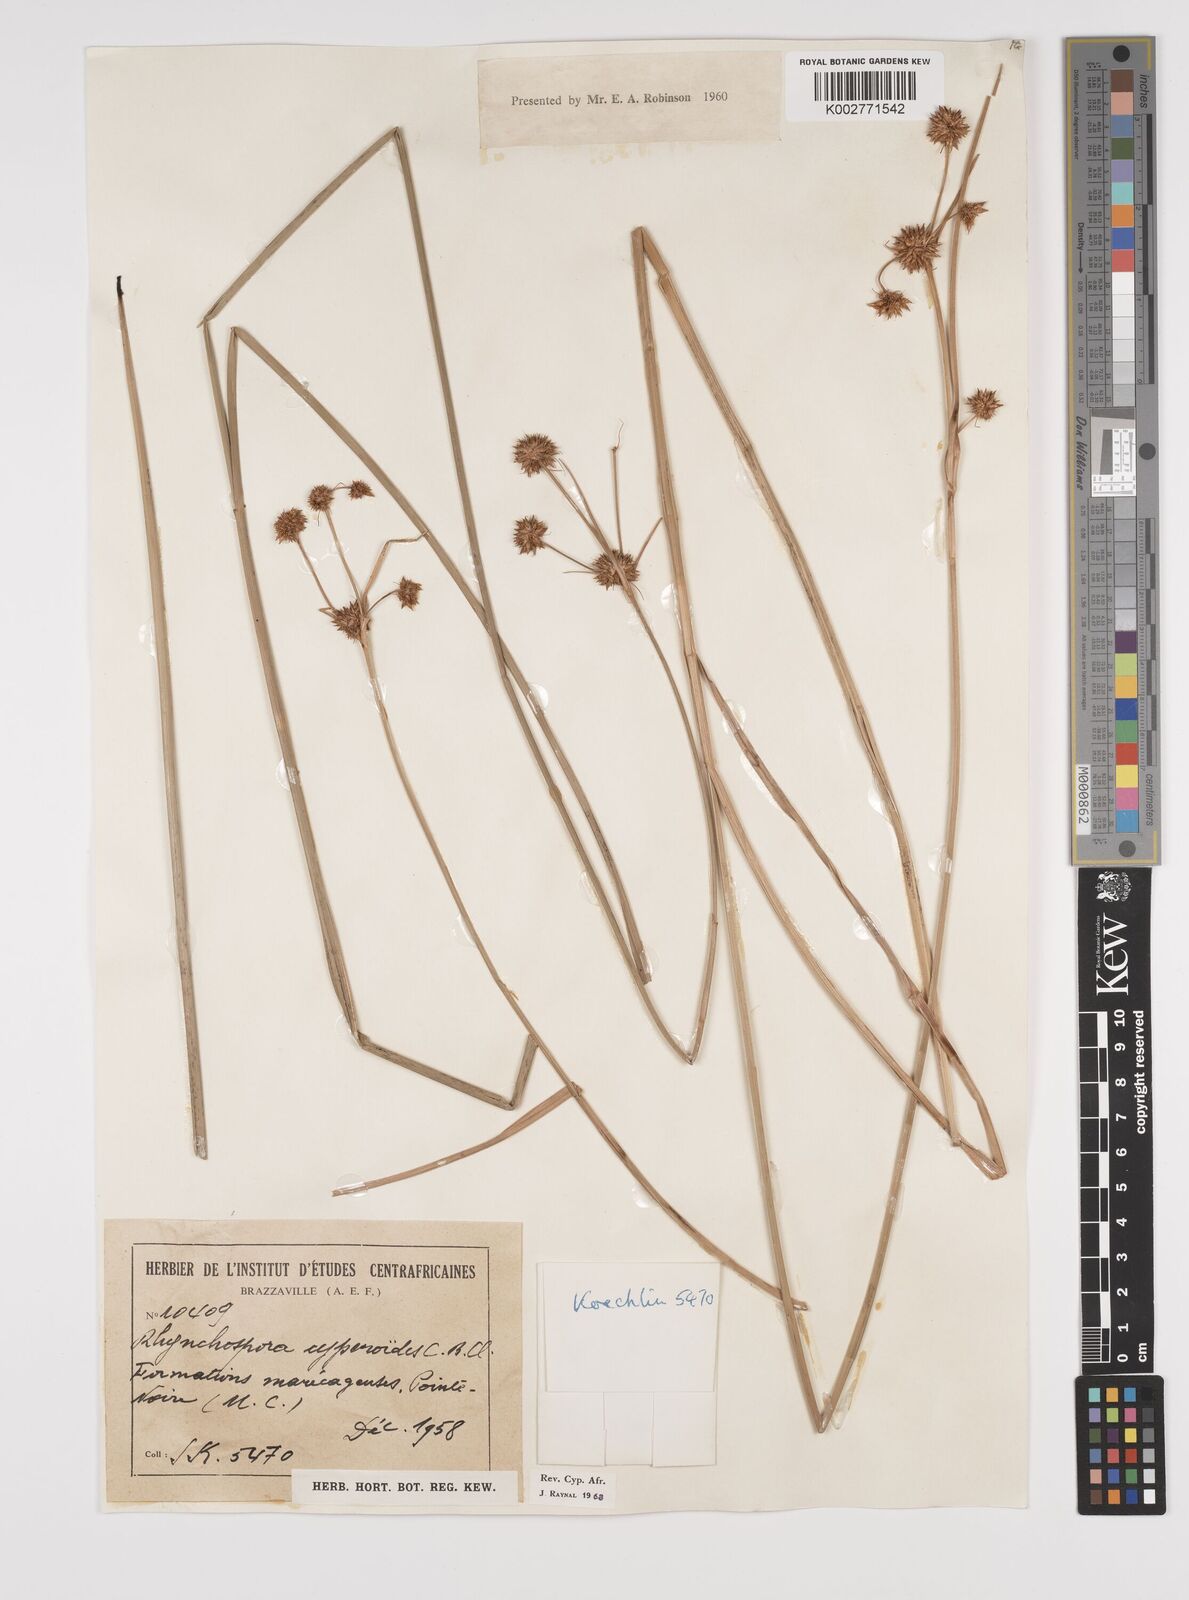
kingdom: Plantae
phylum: Tracheophyta
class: Liliopsida
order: Poales
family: Cyperaceae
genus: Rhynchospora
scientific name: Rhynchospora holoschoenoides
